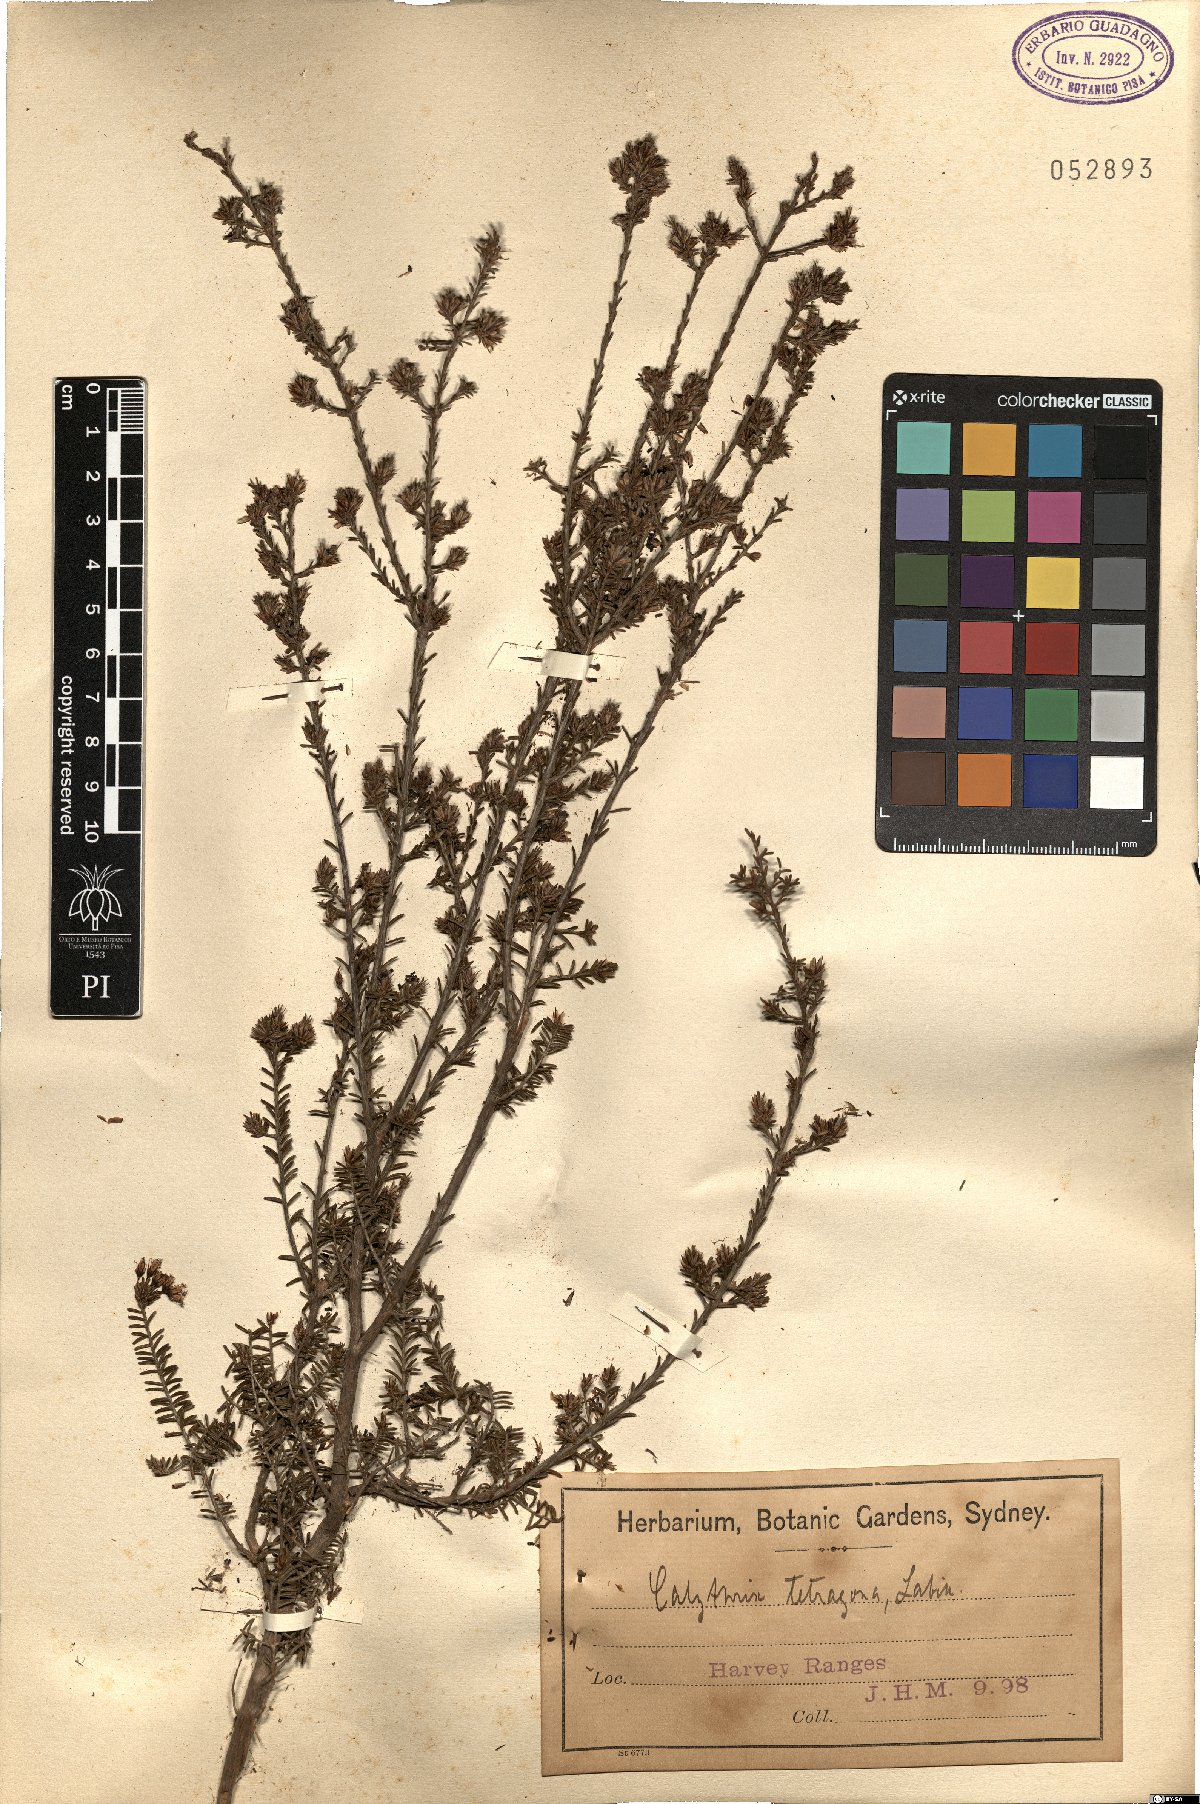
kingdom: Plantae
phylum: Tracheophyta
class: Magnoliopsida
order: Myrtales
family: Myrtaceae
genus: Calytrix
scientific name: Calytrix tetragona
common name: Common fringe myrtle
